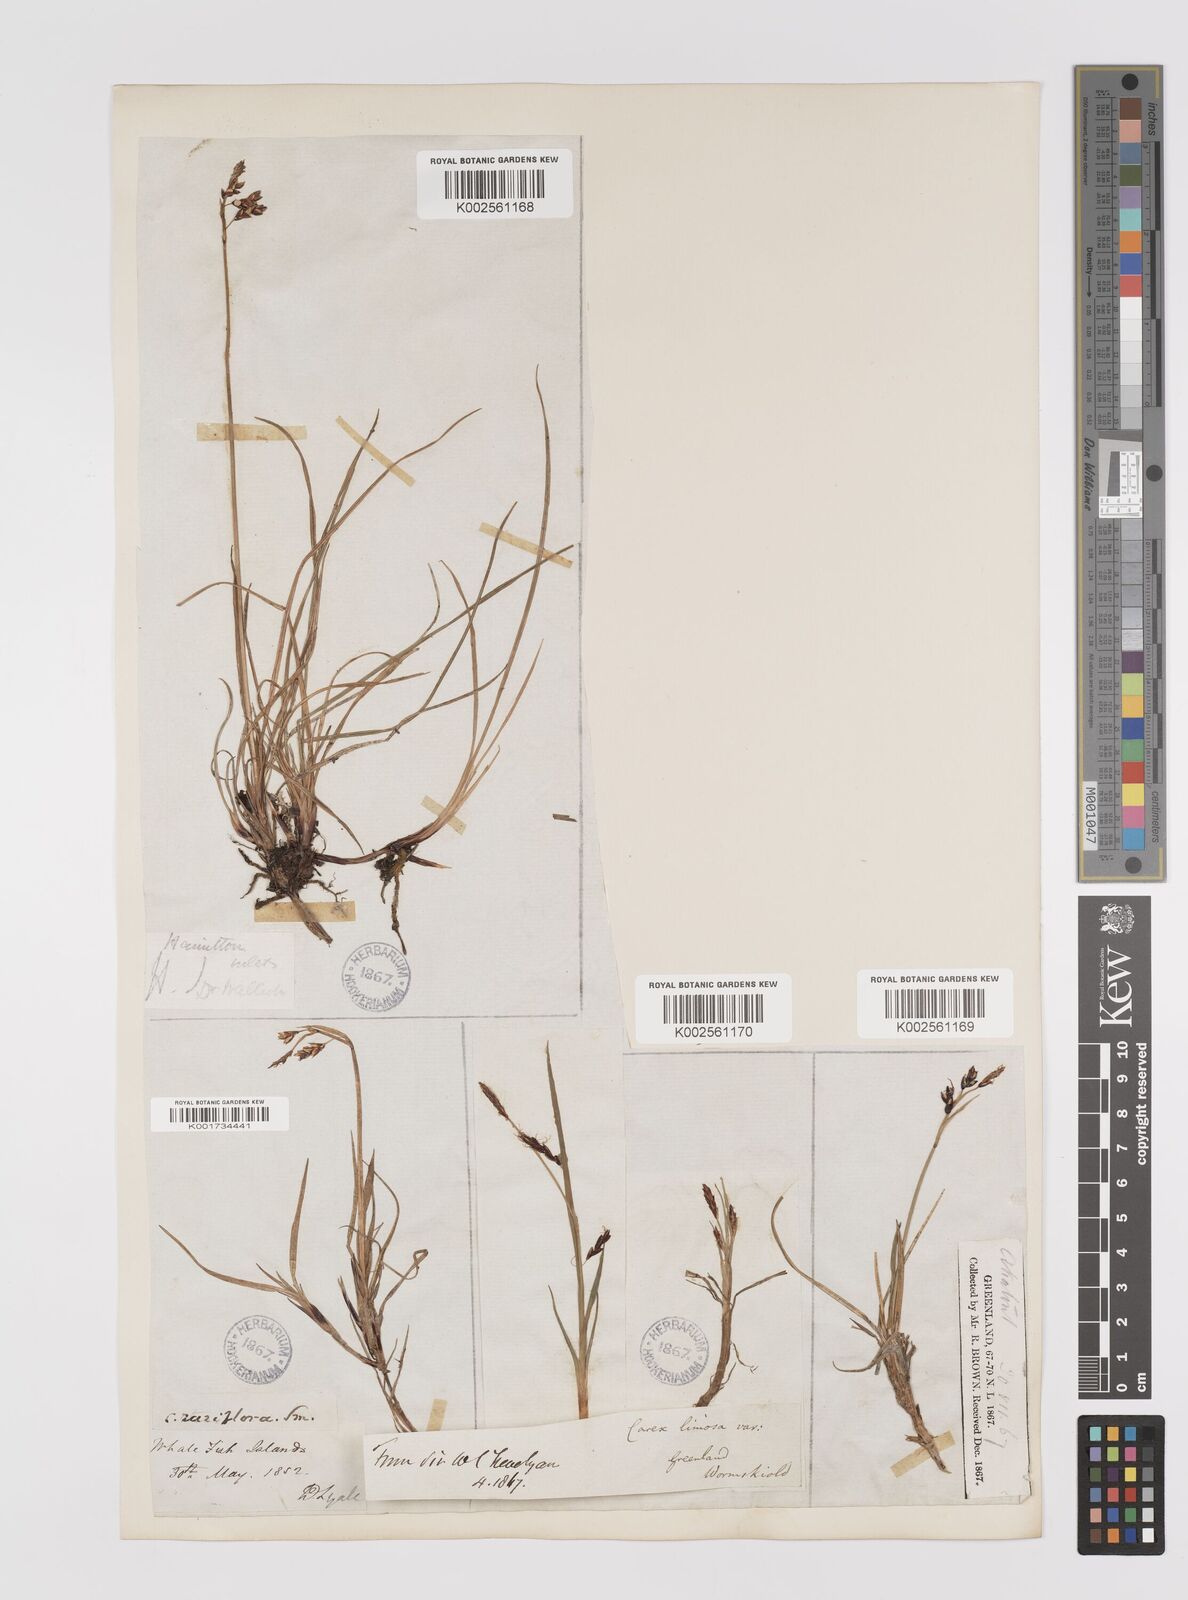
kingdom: Plantae
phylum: Tracheophyta
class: Liliopsida
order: Poales
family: Cyperaceae
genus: Carex
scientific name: Carex rariflora
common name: Loose-flowered alpine sedge
